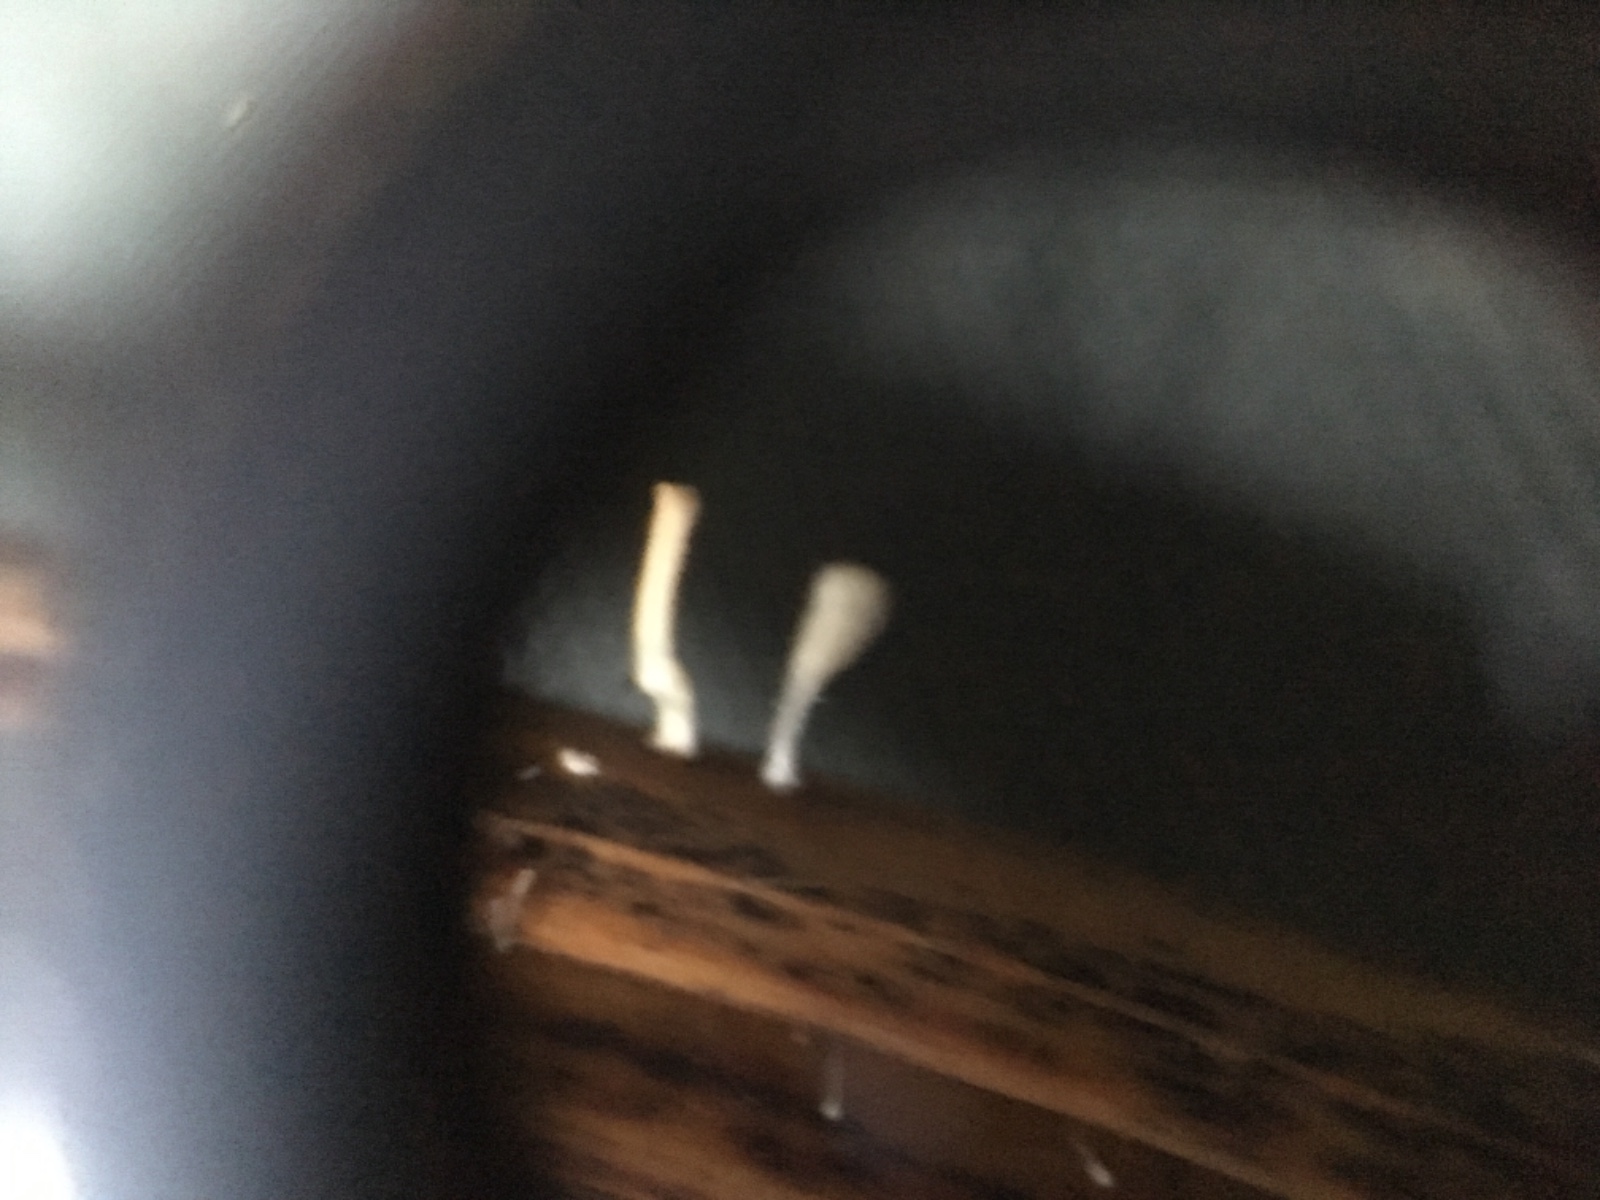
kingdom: Fungi
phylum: Basidiomycota
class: Agaricomycetes
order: Agaricales
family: Typhulaceae
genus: Typhula
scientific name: Typhula quisquiliaris
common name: ørnebregne-trådkølle
